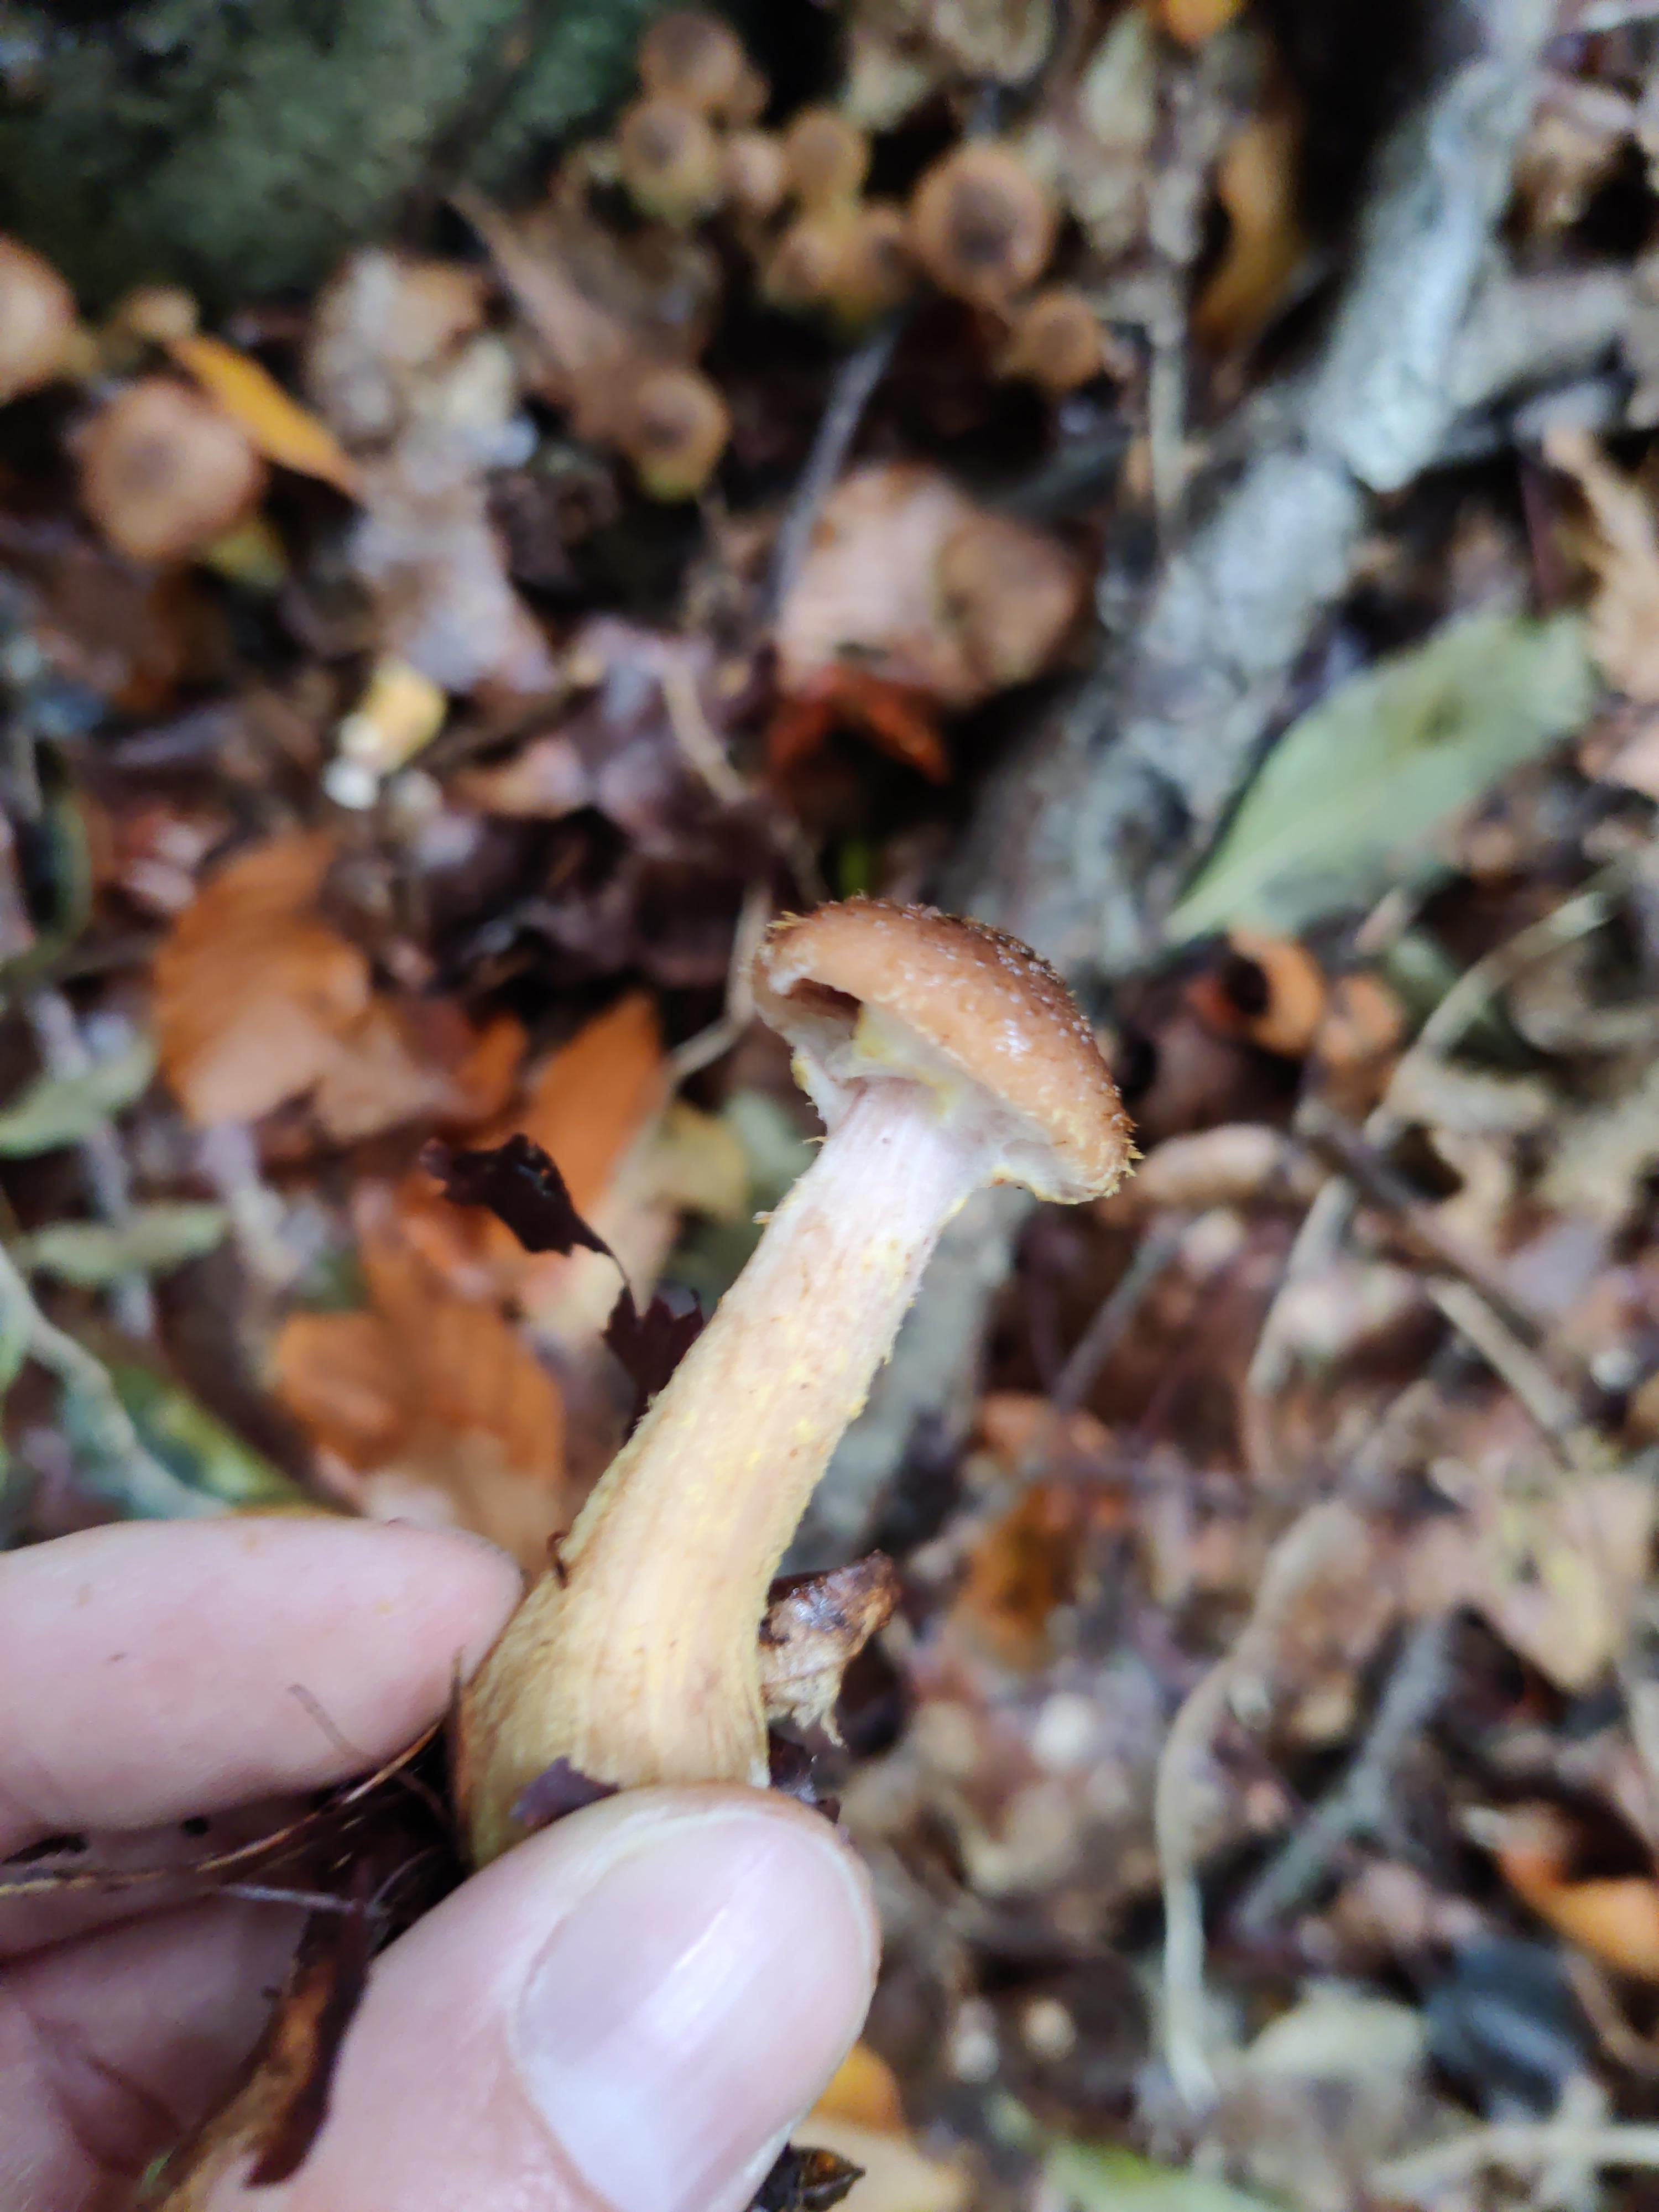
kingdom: Fungi
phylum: Basidiomycota
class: Agaricomycetes
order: Agaricales
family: Physalacriaceae
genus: Armillaria
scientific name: Armillaria lutea
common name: køllestokket honningsvamp
